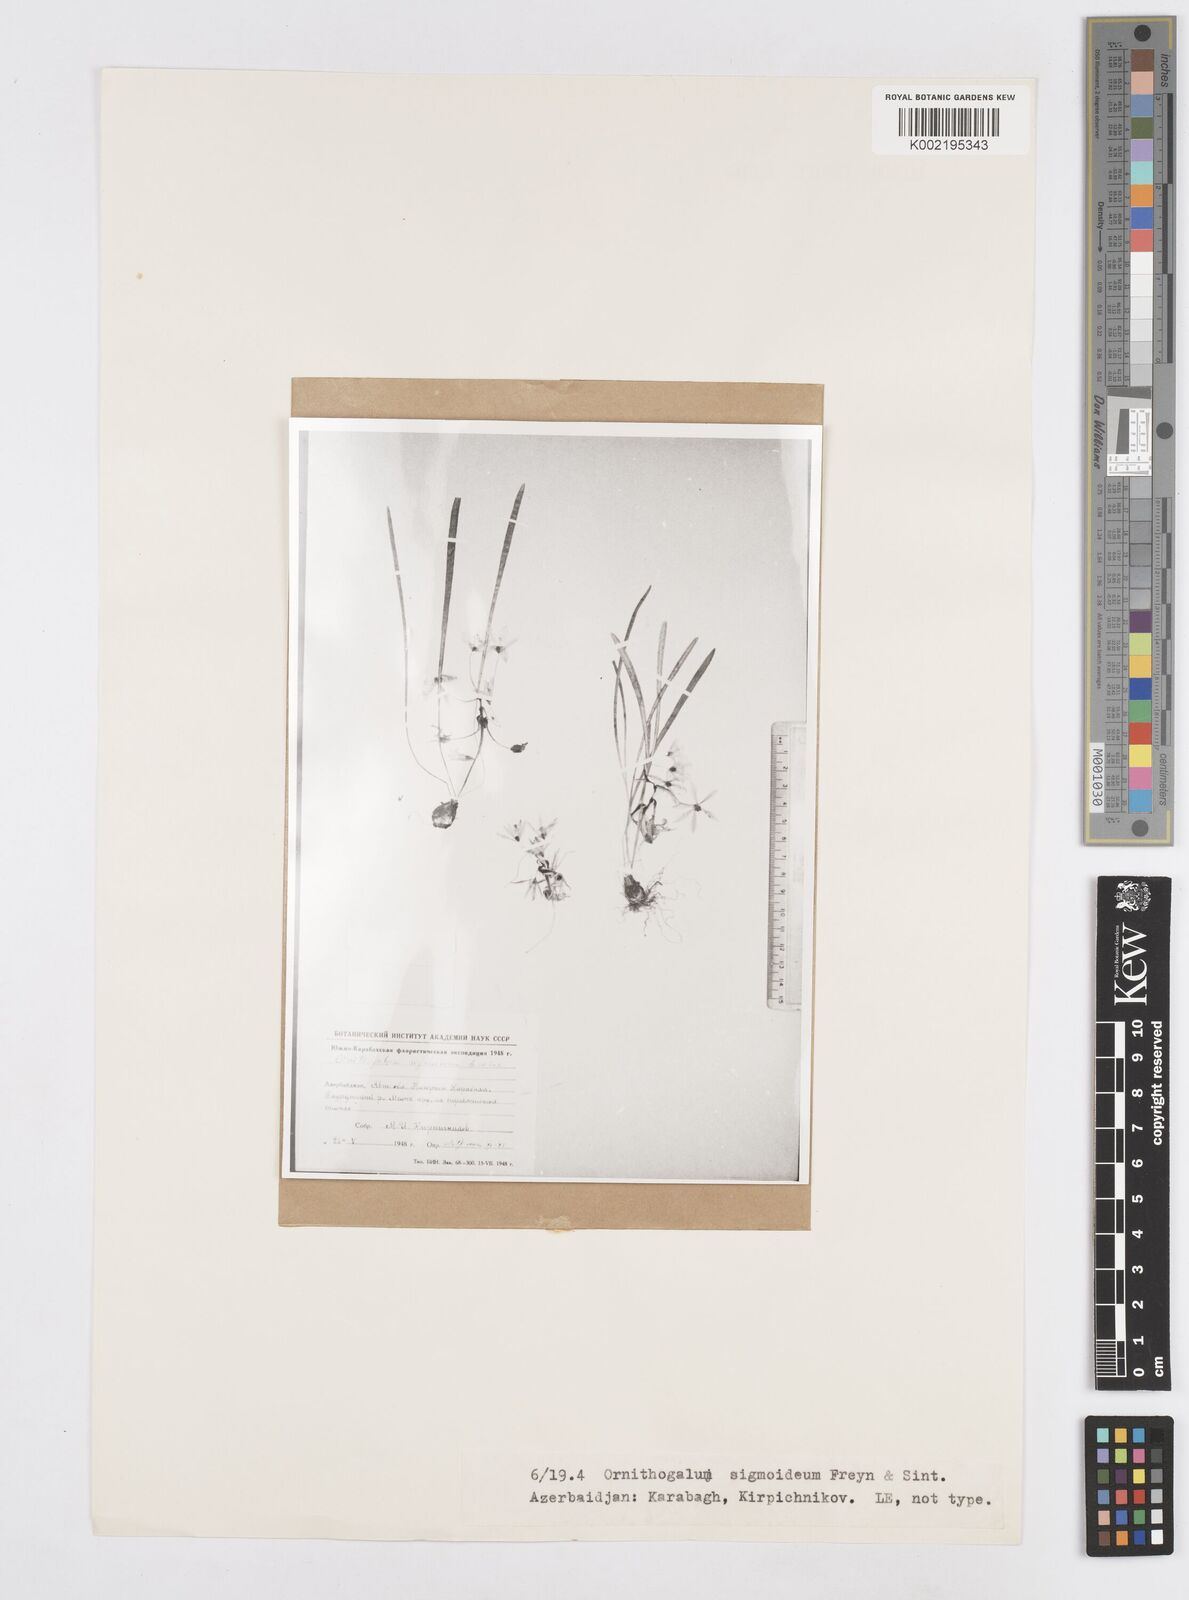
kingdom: Plantae
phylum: Tracheophyta
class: Liliopsida
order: Asparagales
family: Asparagaceae
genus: Ornithogalum
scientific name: Ornithogalum sigmoideum
